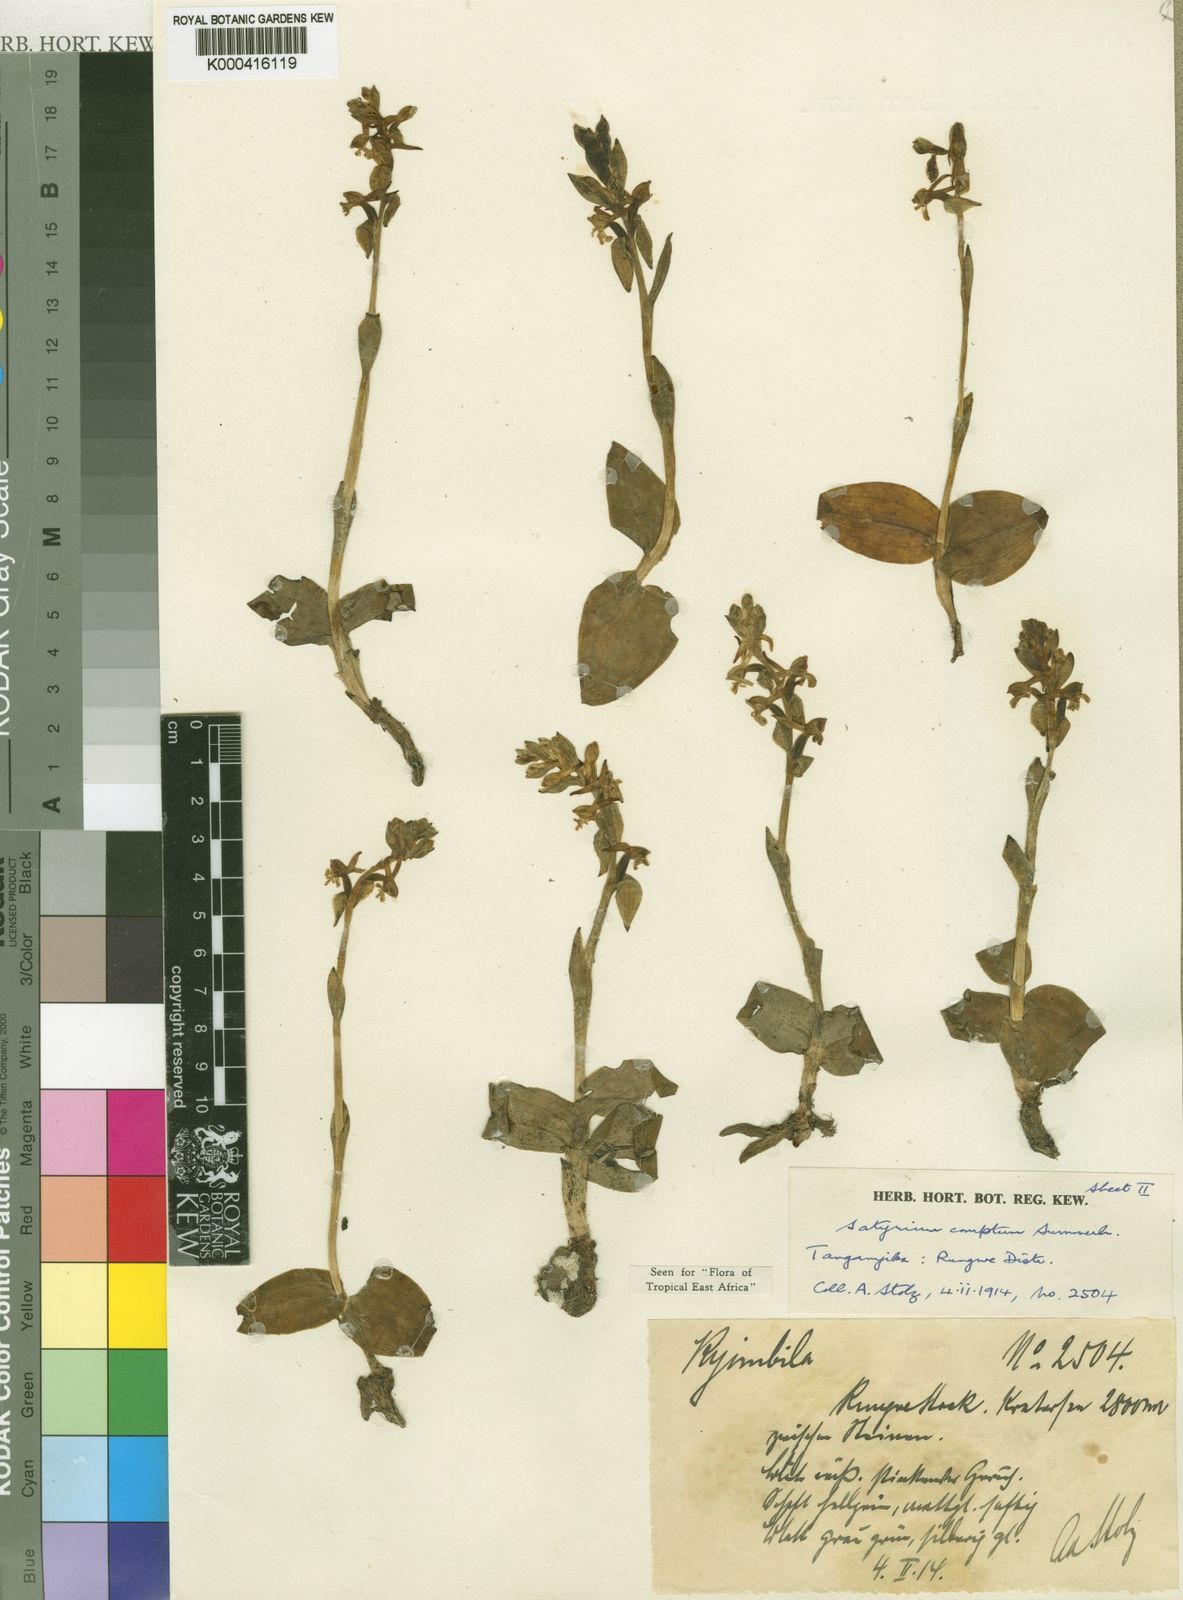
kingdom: Plantae
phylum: Tracheophyta
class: Liliopsida
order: Asparagales
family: Orchidaceae
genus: Satyrium
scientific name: Satyrium comptum
